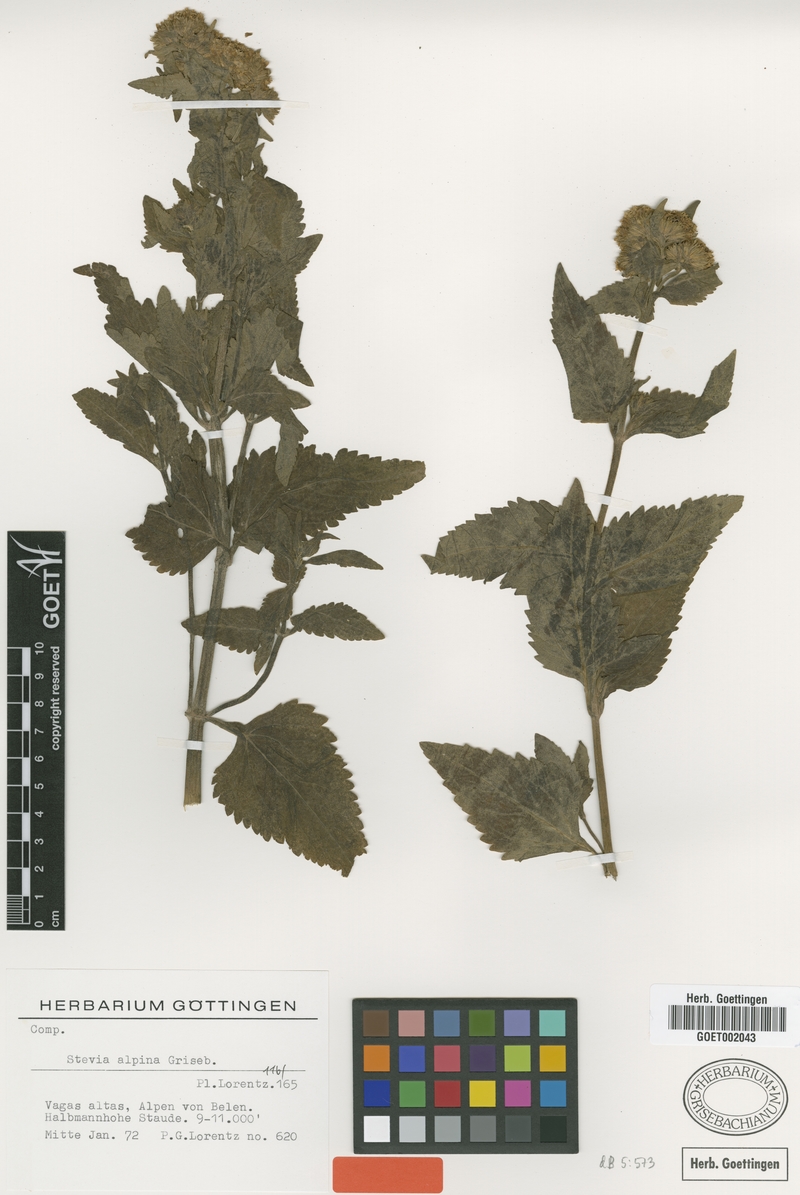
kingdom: Plantae
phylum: Tracheophyta
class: Magnoliopsida
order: Asterales
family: Asteraceae
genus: Stevia
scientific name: Stevia alpina
